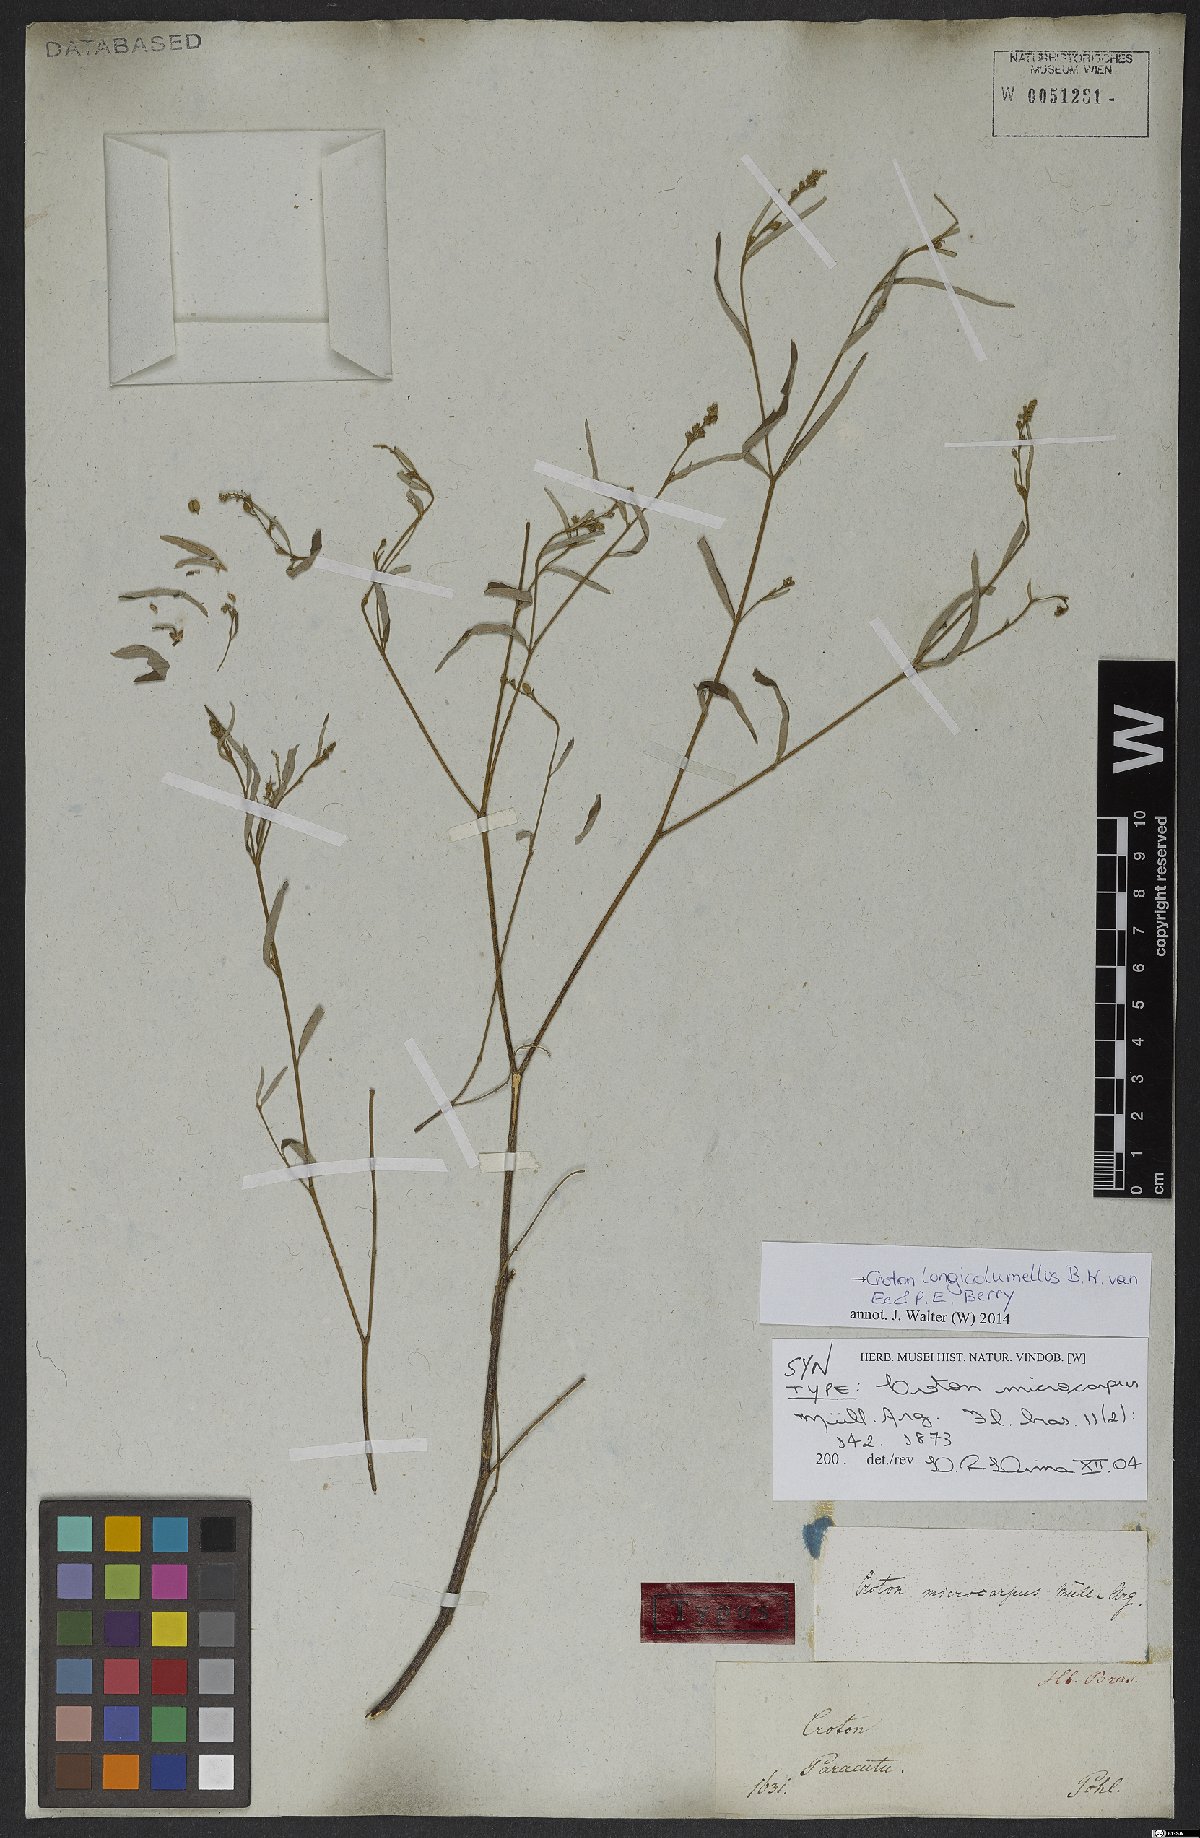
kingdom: Plantae
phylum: Tracheophyta
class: Magnoliopsida
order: Malpighiales
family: Euphorbiaceae
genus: Croton
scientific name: Croton longicolumellus
